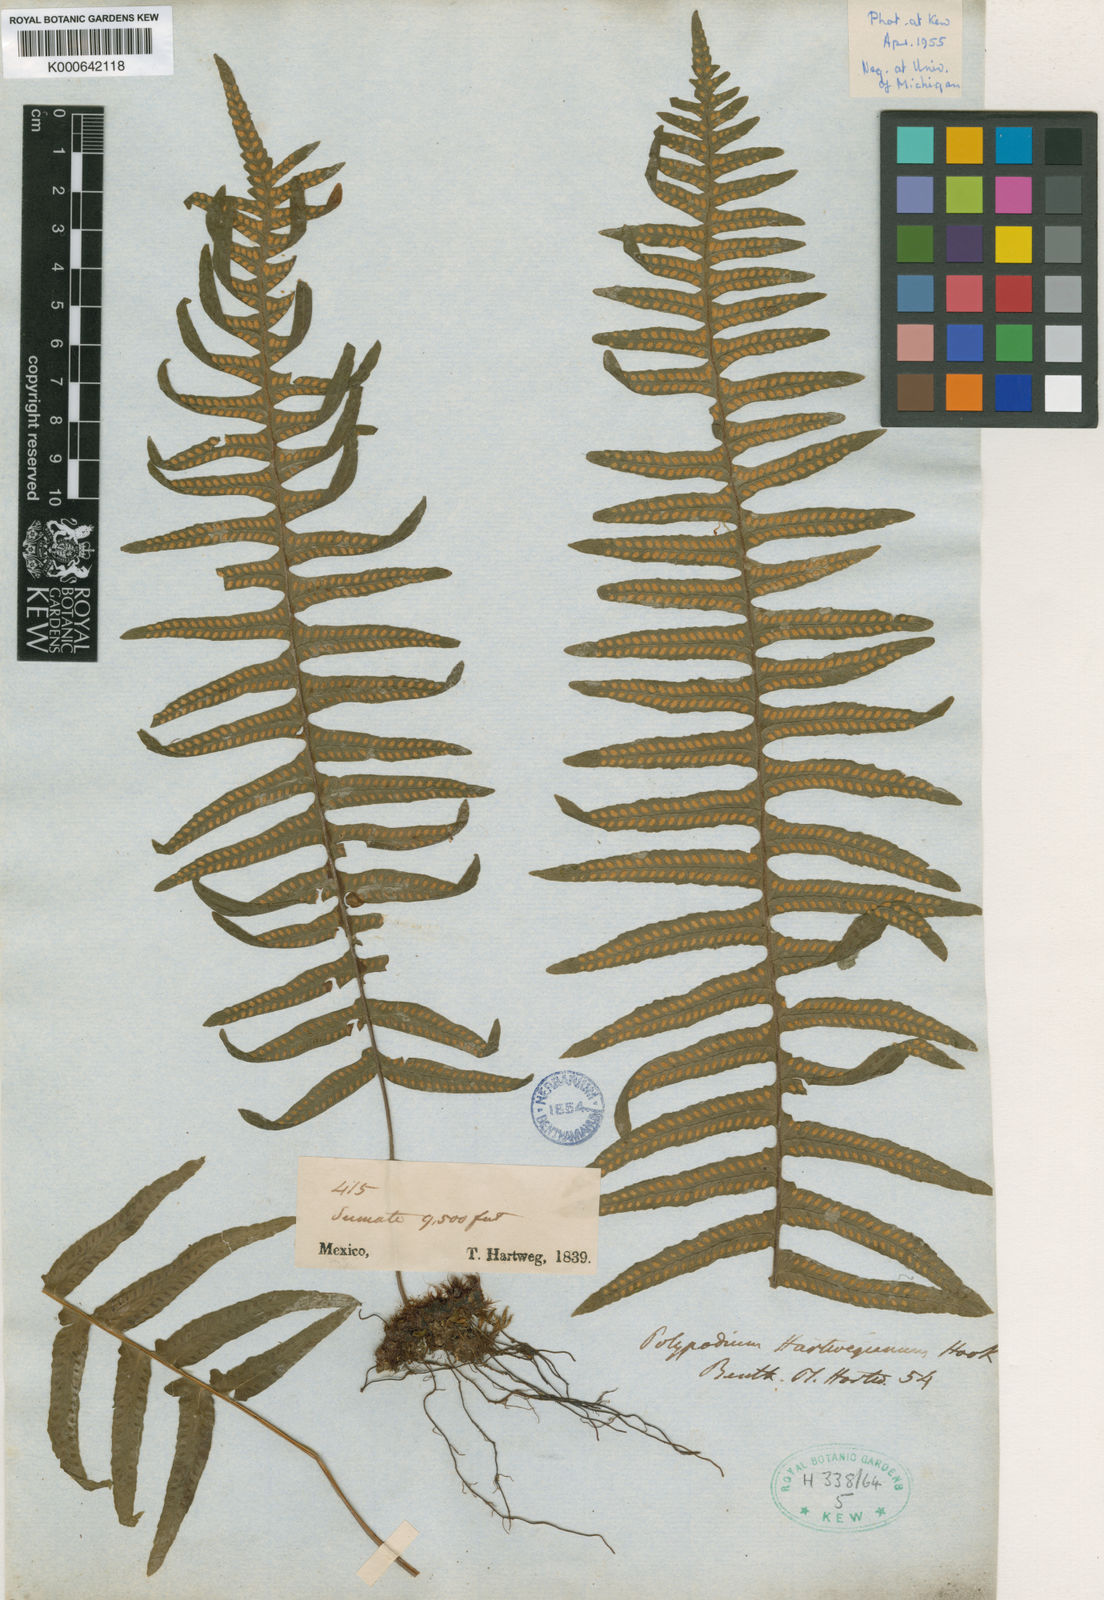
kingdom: Plantae
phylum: Tracheophyta
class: Polypodiopsida
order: Polypodiales
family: Polypodiaceae
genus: Pecluma
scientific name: Pecluma hartwegiana
